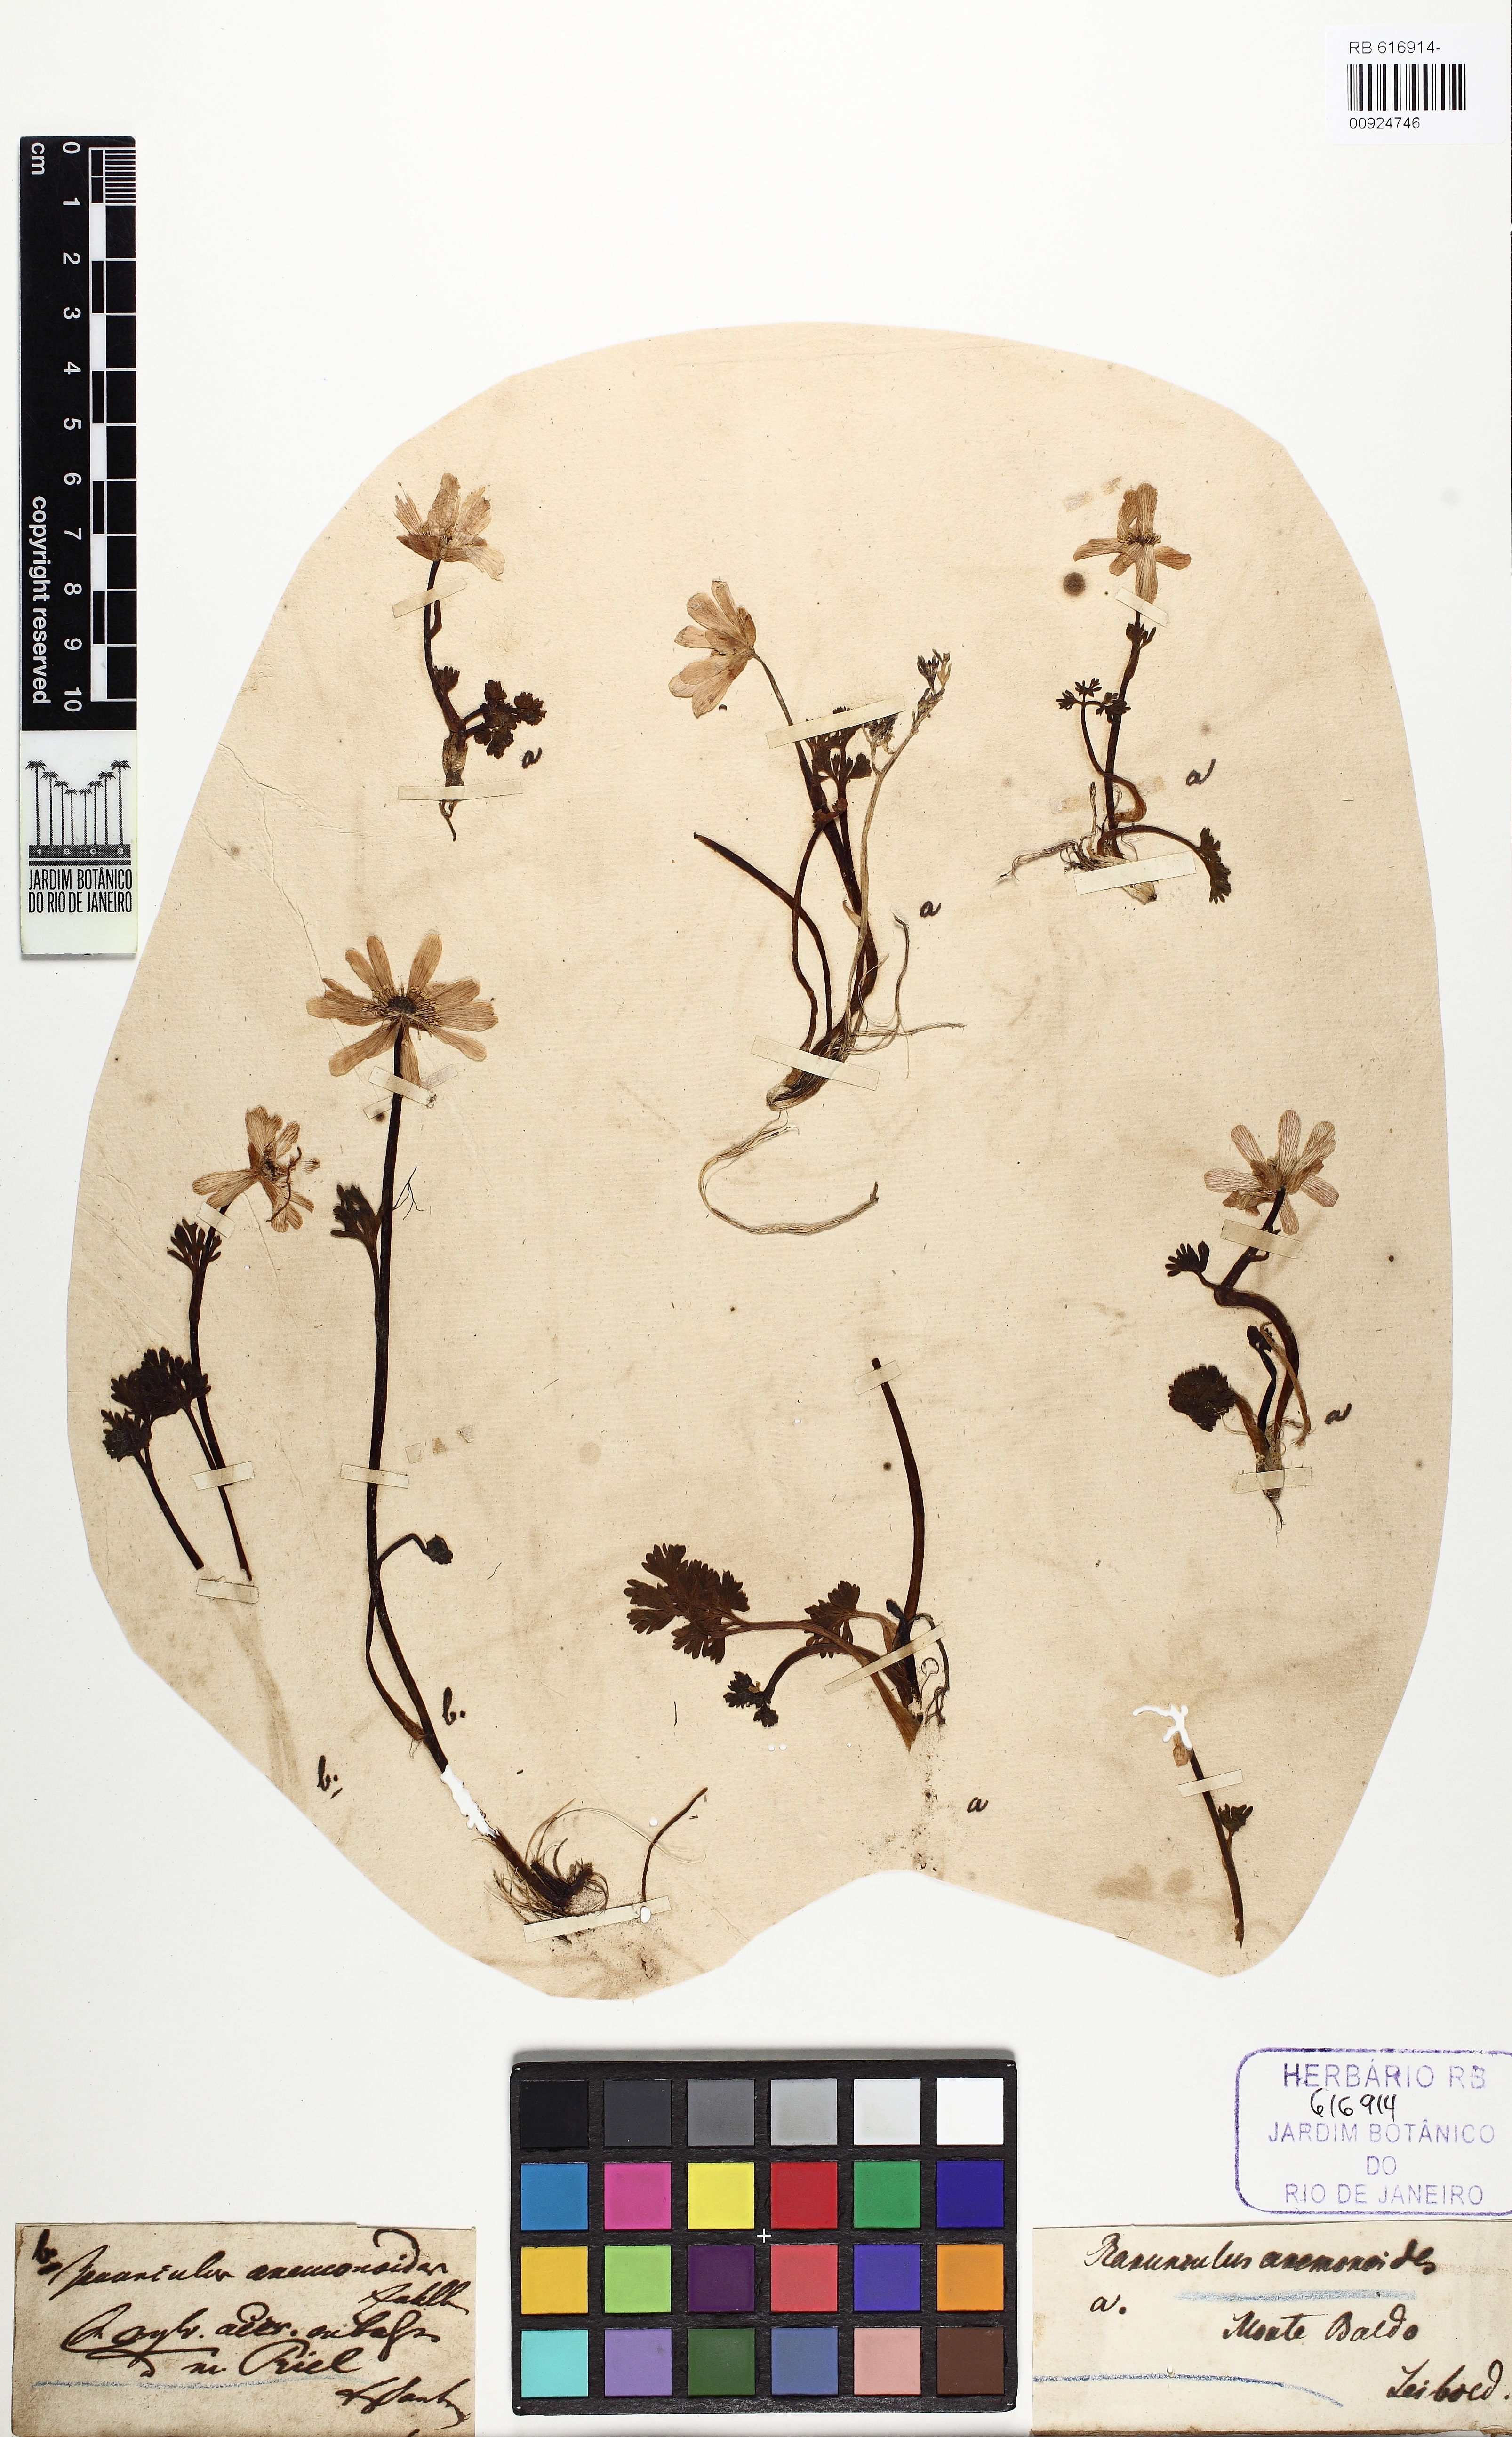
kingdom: Plantae
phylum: Tracheophyta
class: Magnoliopsida
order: Ranunculales
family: Ranunculaceae
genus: Callianthemum
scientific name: Callianthemum anemonoides
